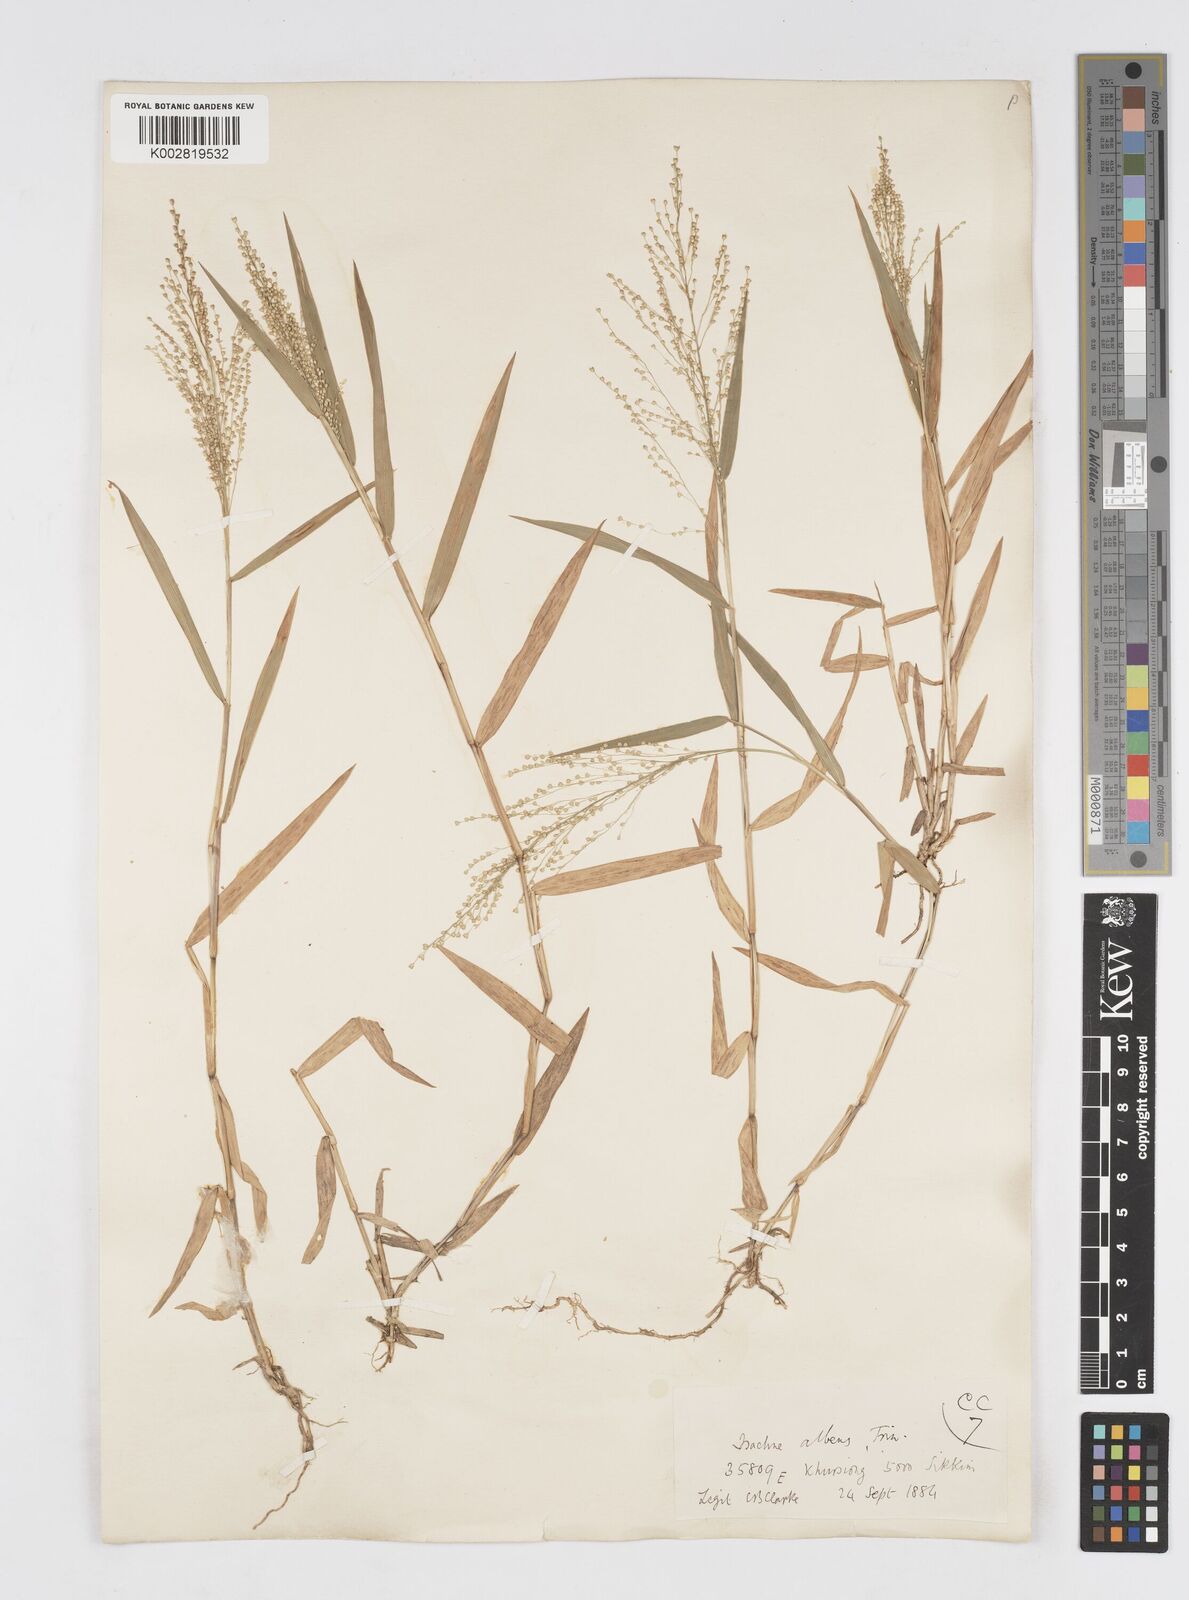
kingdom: Plantae
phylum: Tracheophyta
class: Liliopsida
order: Poales
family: Poaceae
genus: Isachne
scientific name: Isachne albens
